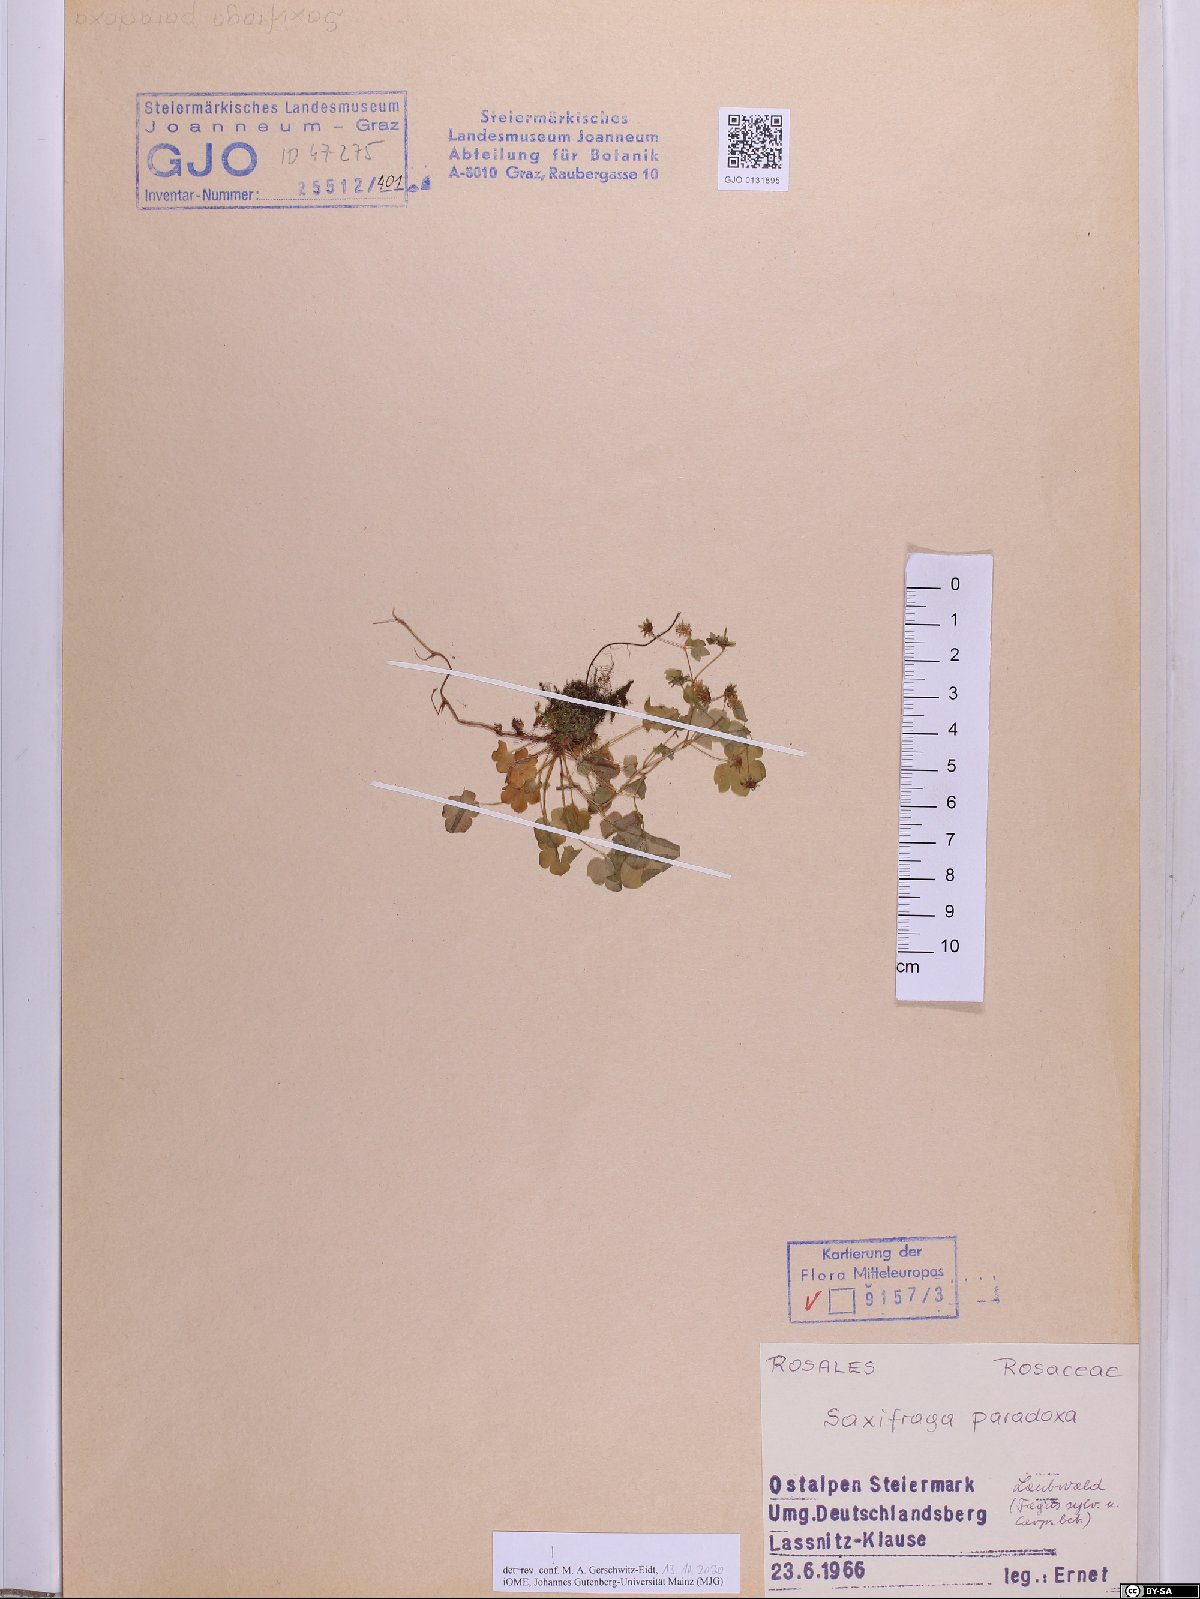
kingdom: Plantae
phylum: Tracheophyta
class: Magnoliopsida
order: Saxifragales
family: Saxifragaceae
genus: Saxifraga
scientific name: Saxifraga paradoxa
